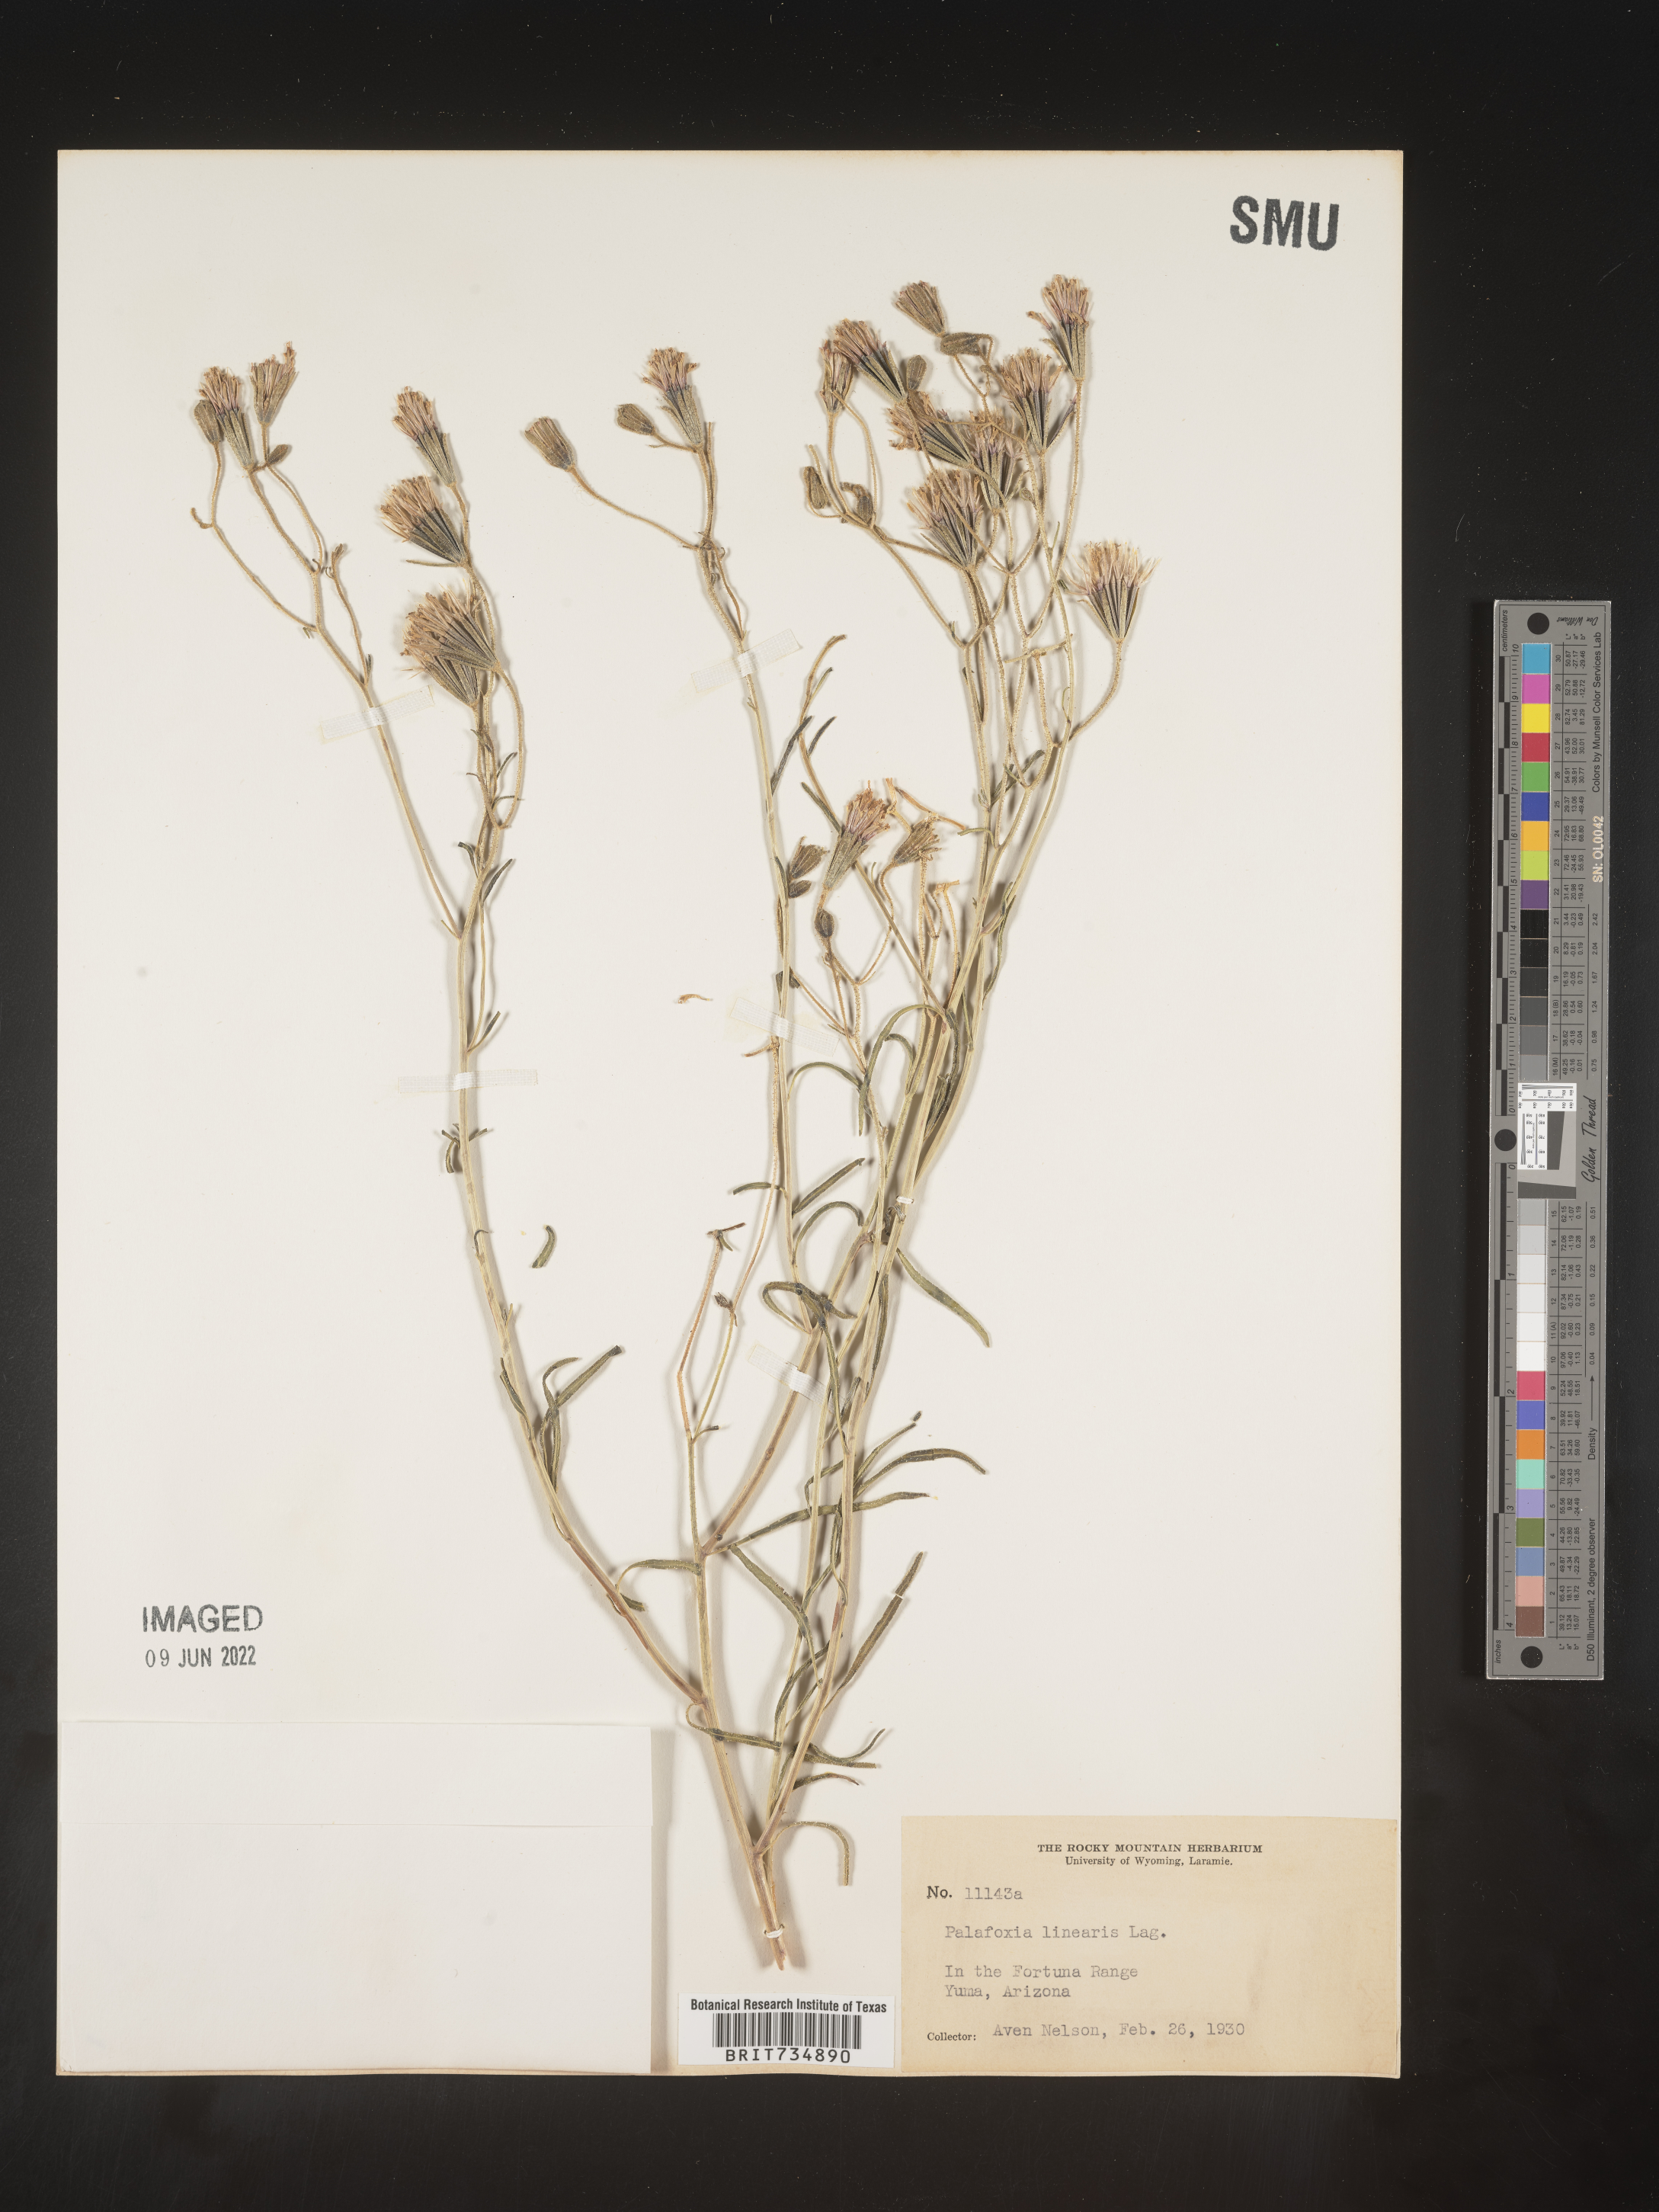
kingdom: Plantae
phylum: Tracheophyta
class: Magnoliopsida
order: Asterales
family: Asteraceae
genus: Palafoxia
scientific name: Palafoxia linearis
